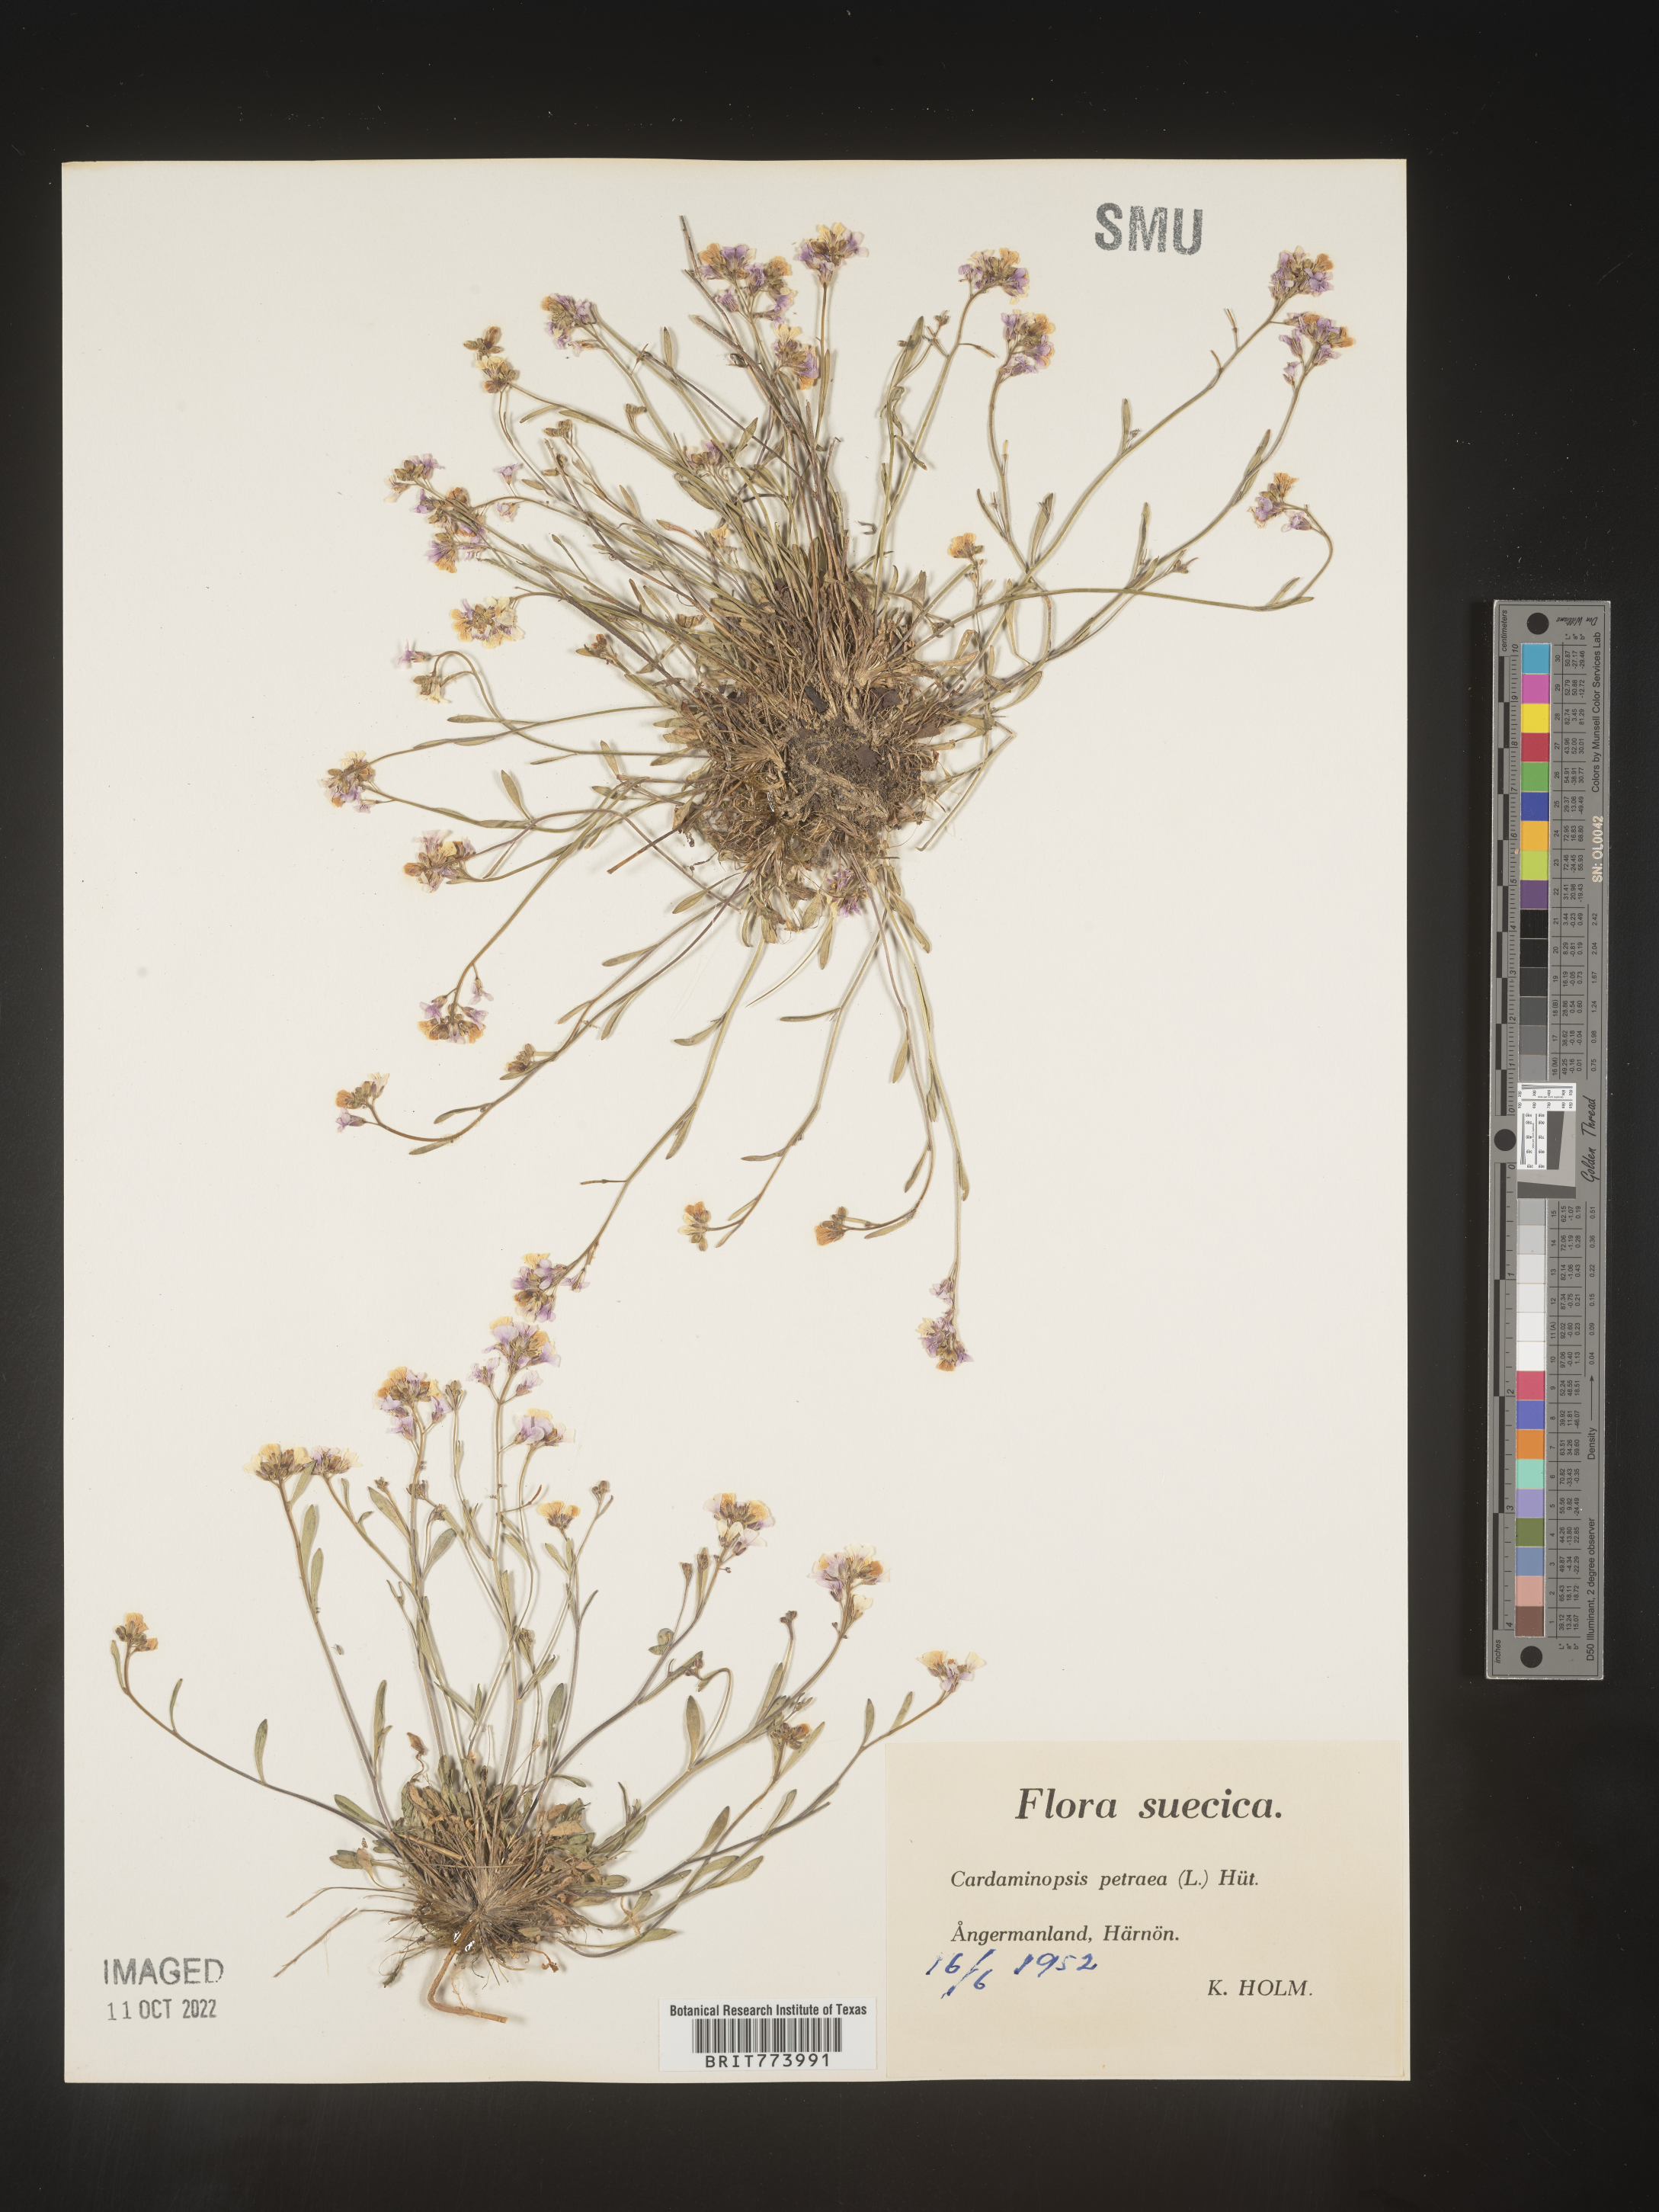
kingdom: Plantae
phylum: Tracheophyta
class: Magnoliopsida
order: Brassicales
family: Brassicaceae
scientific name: Brassicaceae
